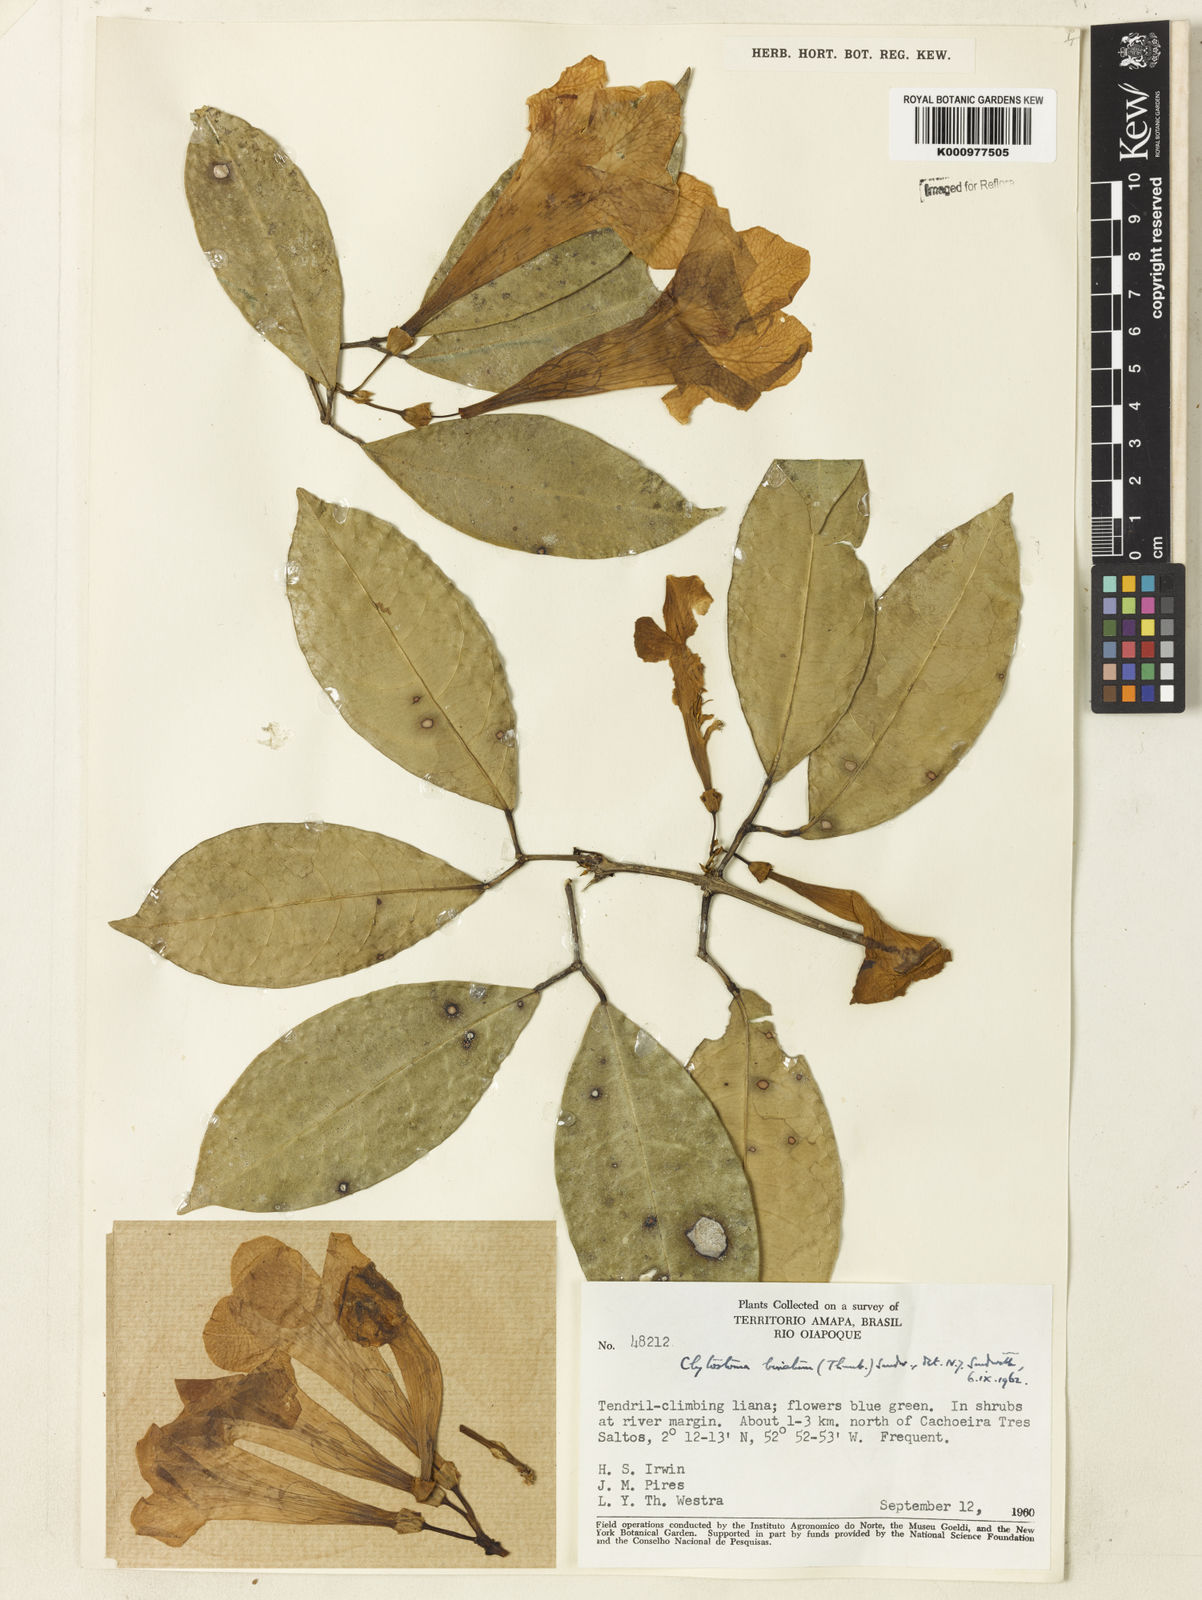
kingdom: Plantae
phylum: Tracheophyta
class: Magnoliopsida
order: Lamiales
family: Bignoniaceae
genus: Bignonia
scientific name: Bignonia binata
